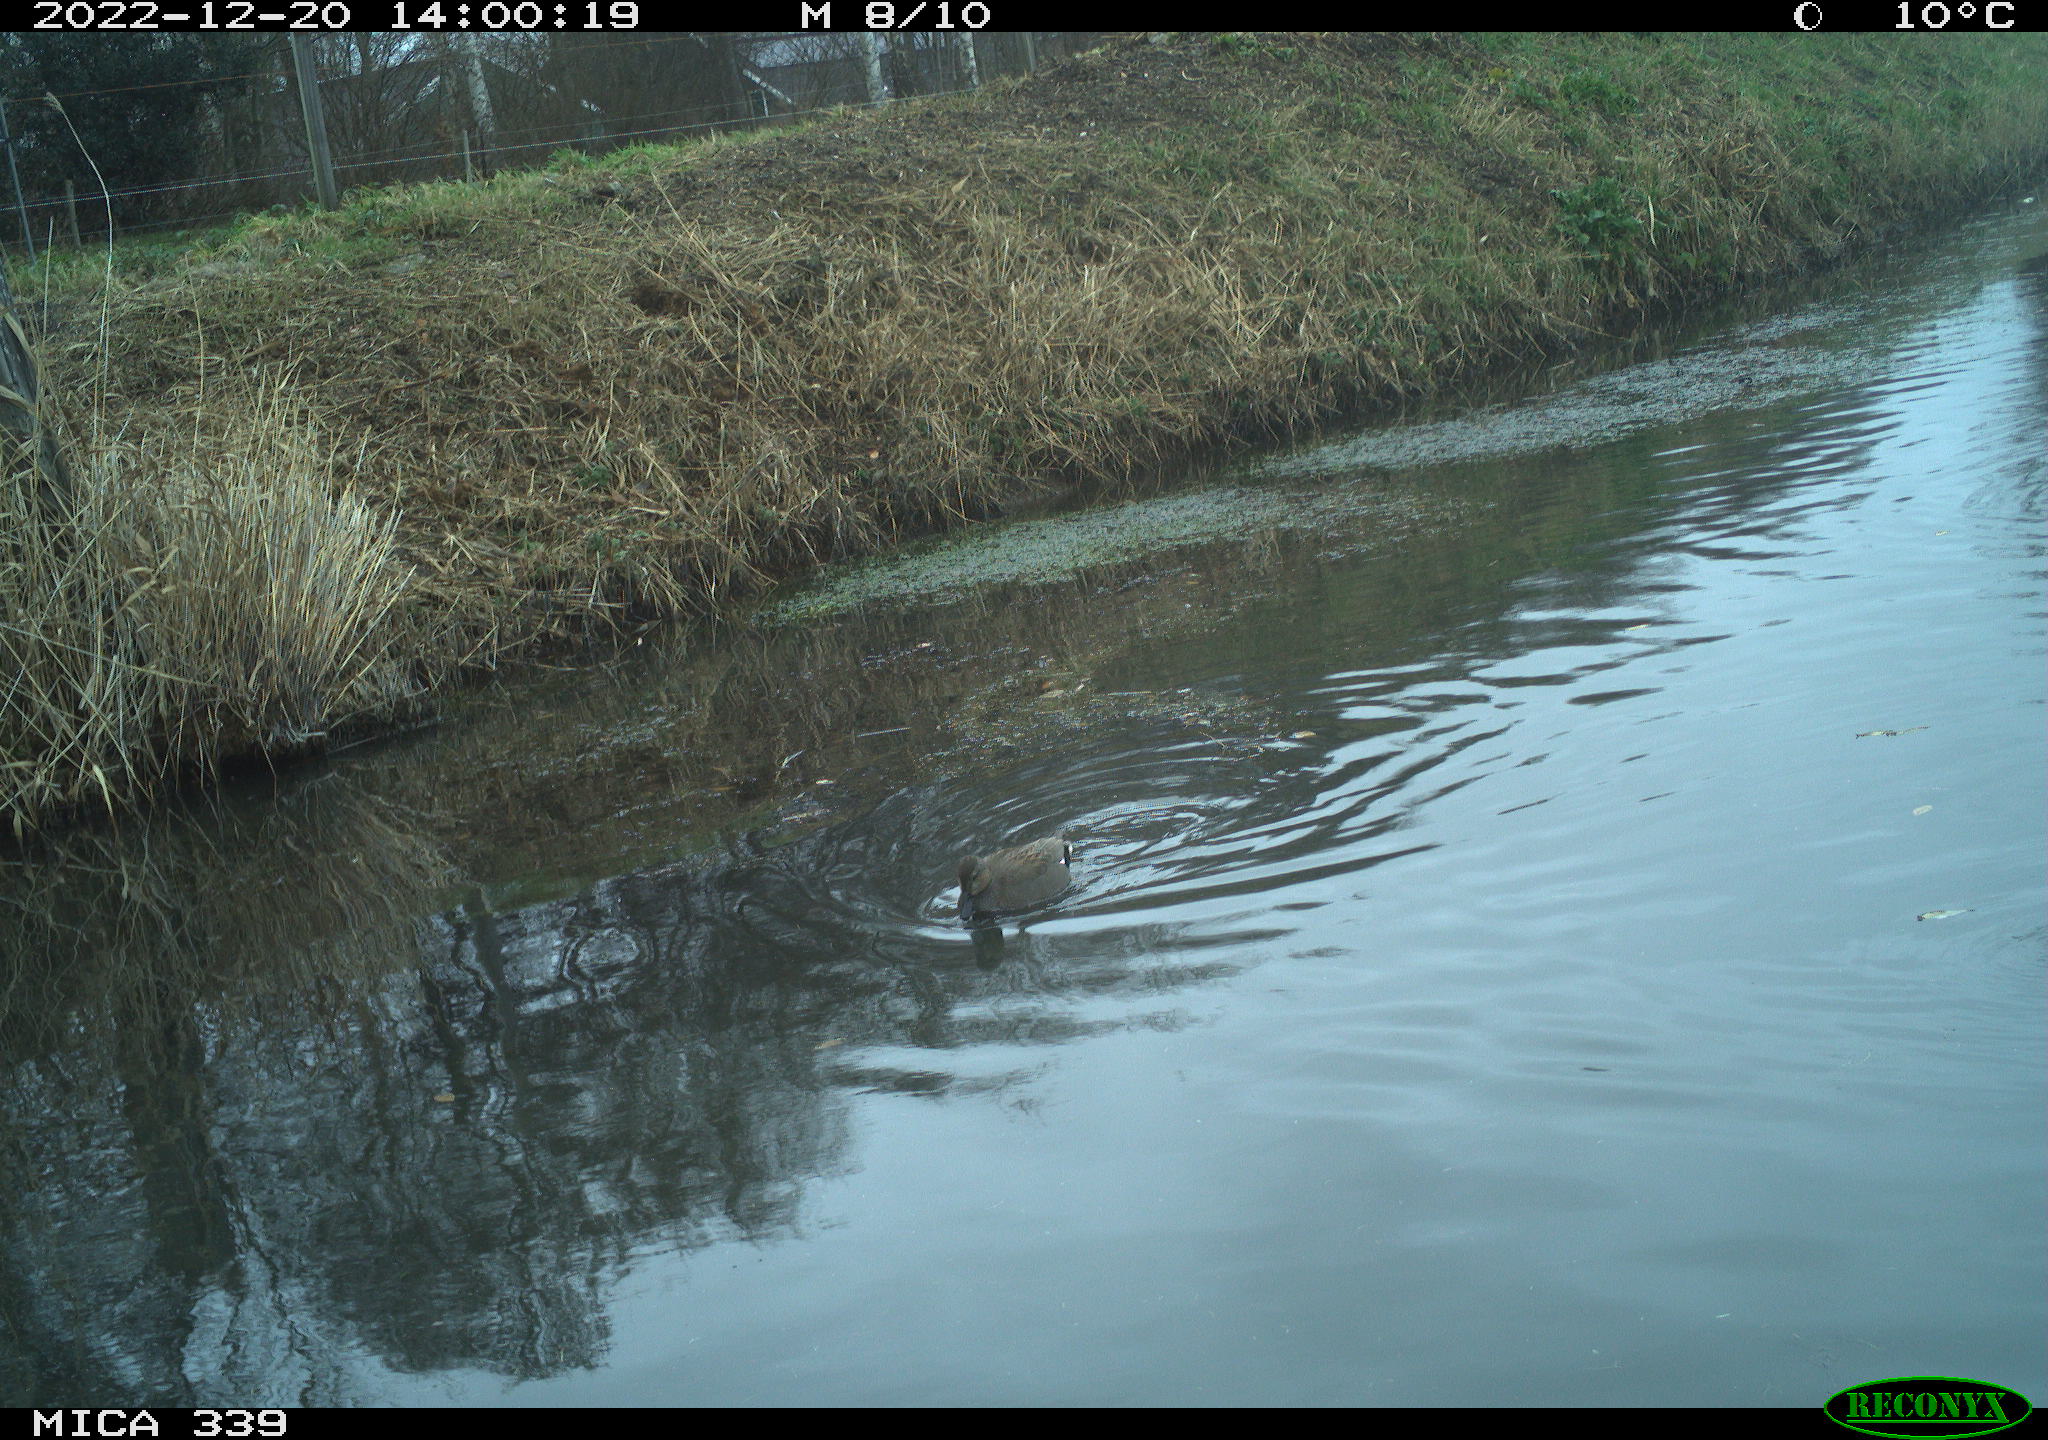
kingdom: Animalia
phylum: Chordata
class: Aves
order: Anseriformes
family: Anatidae
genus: Anas
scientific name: Anas
